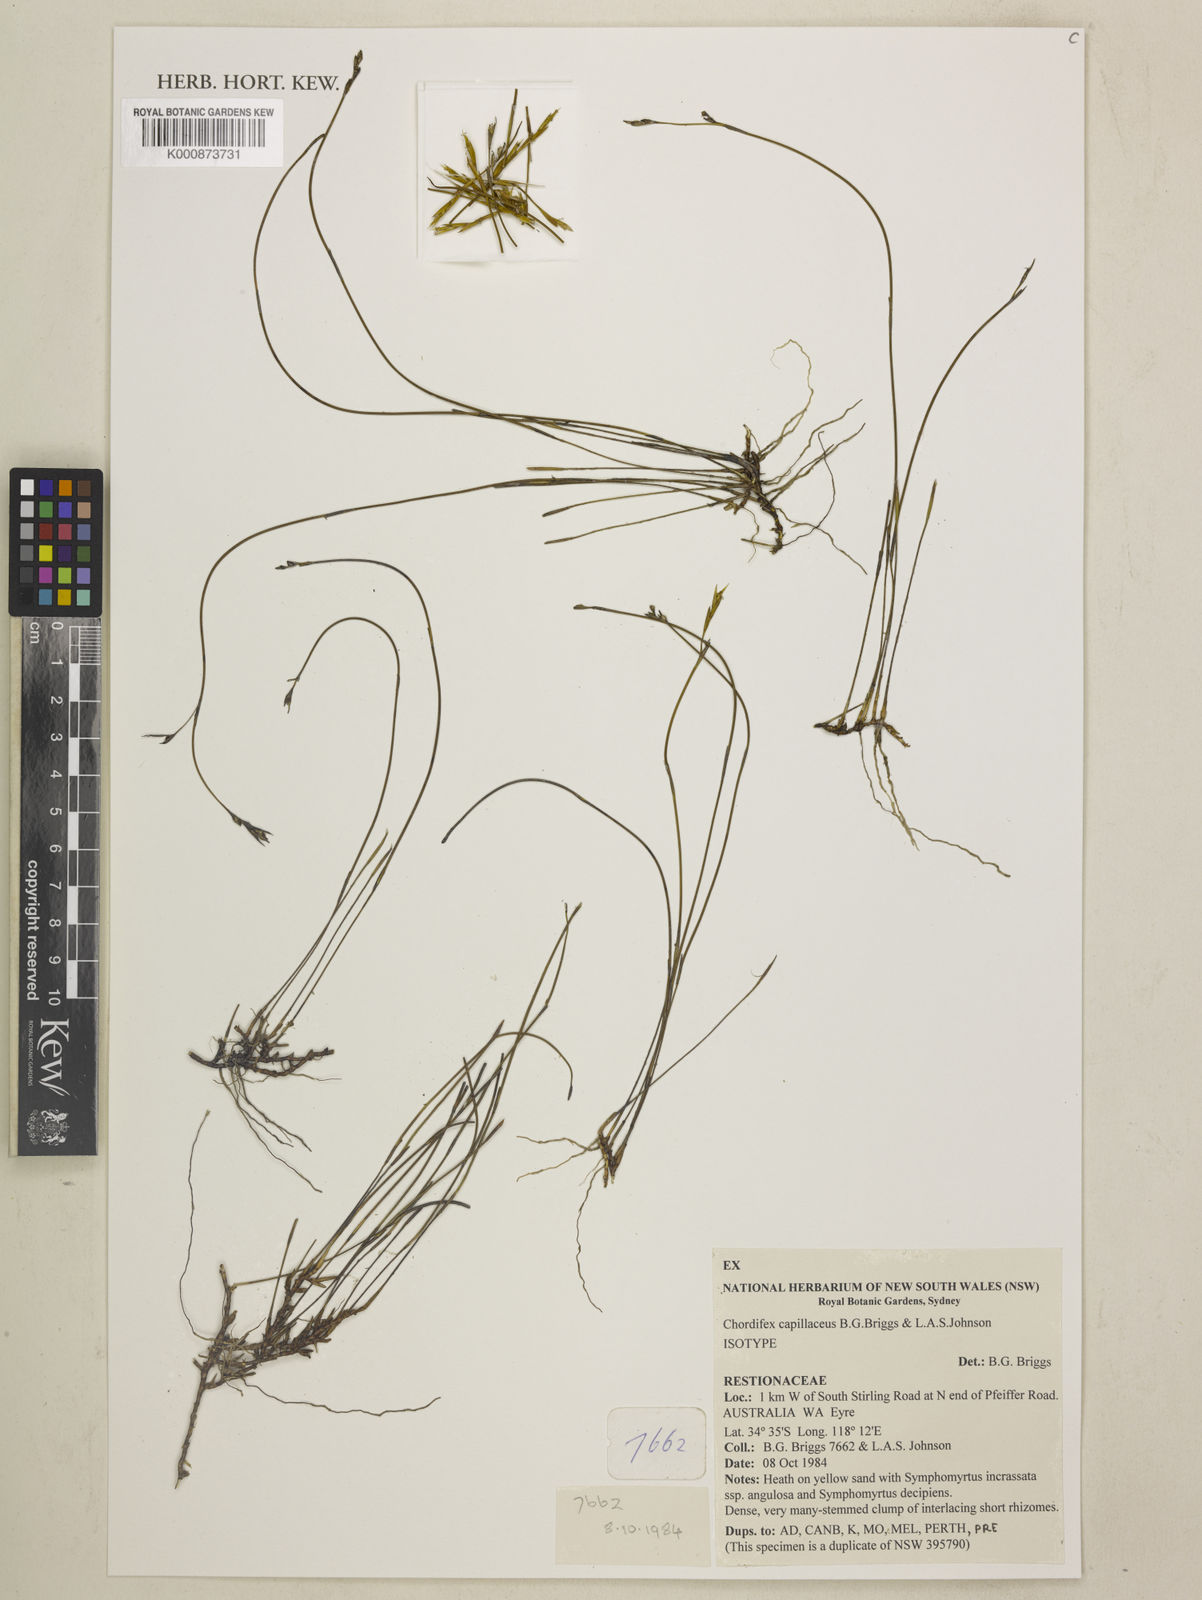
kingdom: Plantae
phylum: Tracheophyta
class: Liliopsida
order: Poales
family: Restionaceae
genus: Chordifex
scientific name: Chordifex capillaceus
